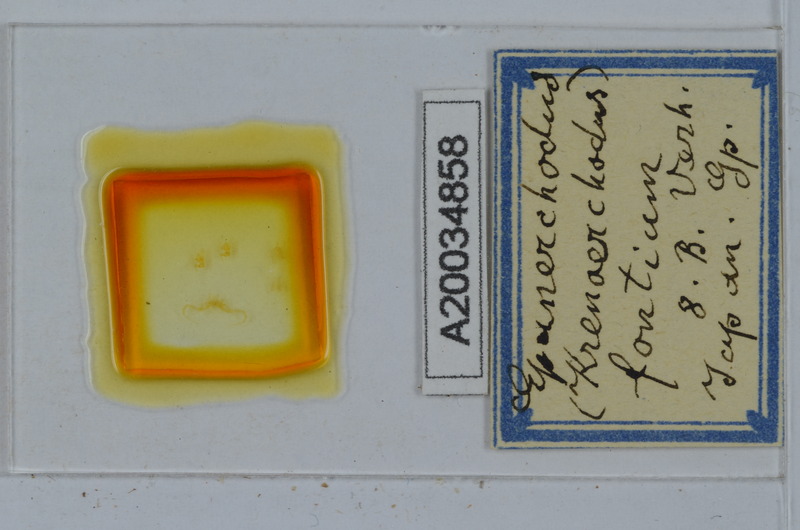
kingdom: Animalia
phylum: Arthropoda
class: Diplopoda
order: Polydesmida
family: Polydesmidae
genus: Epanerchodus
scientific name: Epanerchodus fontium
